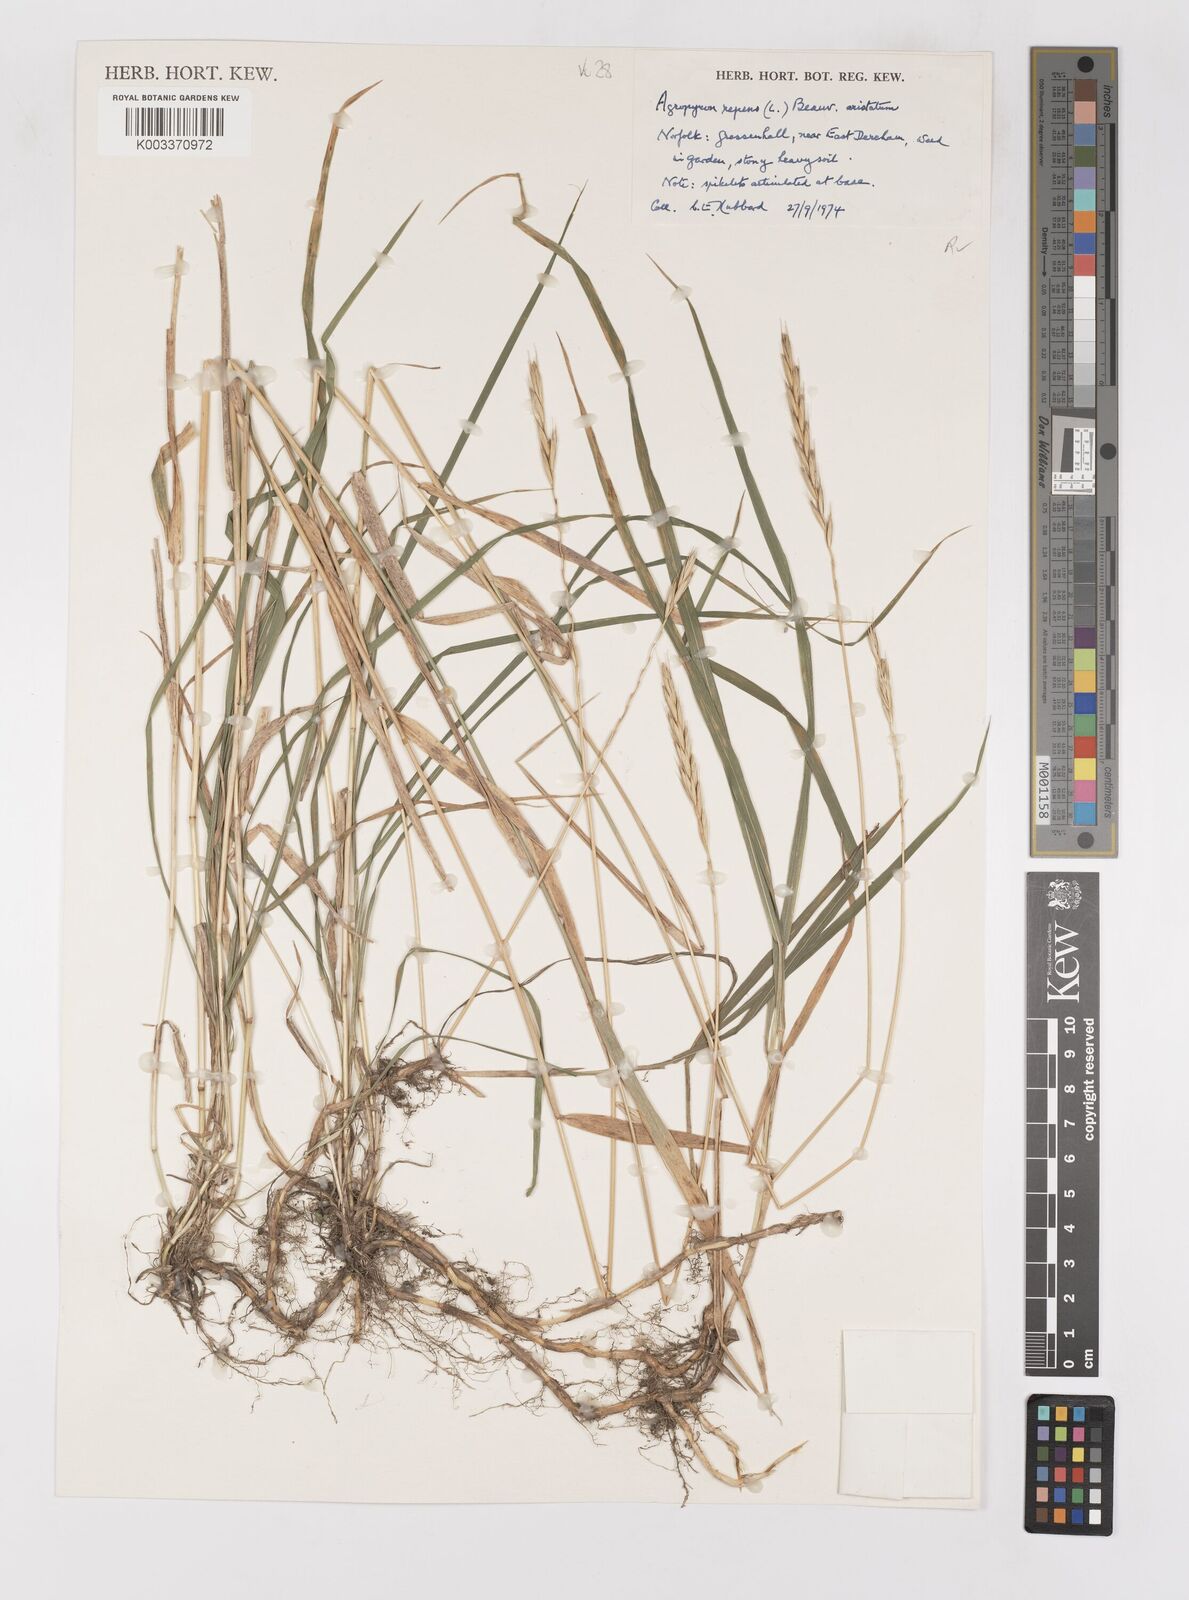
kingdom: Plantae
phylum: Tracheophyta
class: Liliopsida
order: Poales
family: Poaceae
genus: Elymus
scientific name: Elymus repens
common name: Quackgrass
